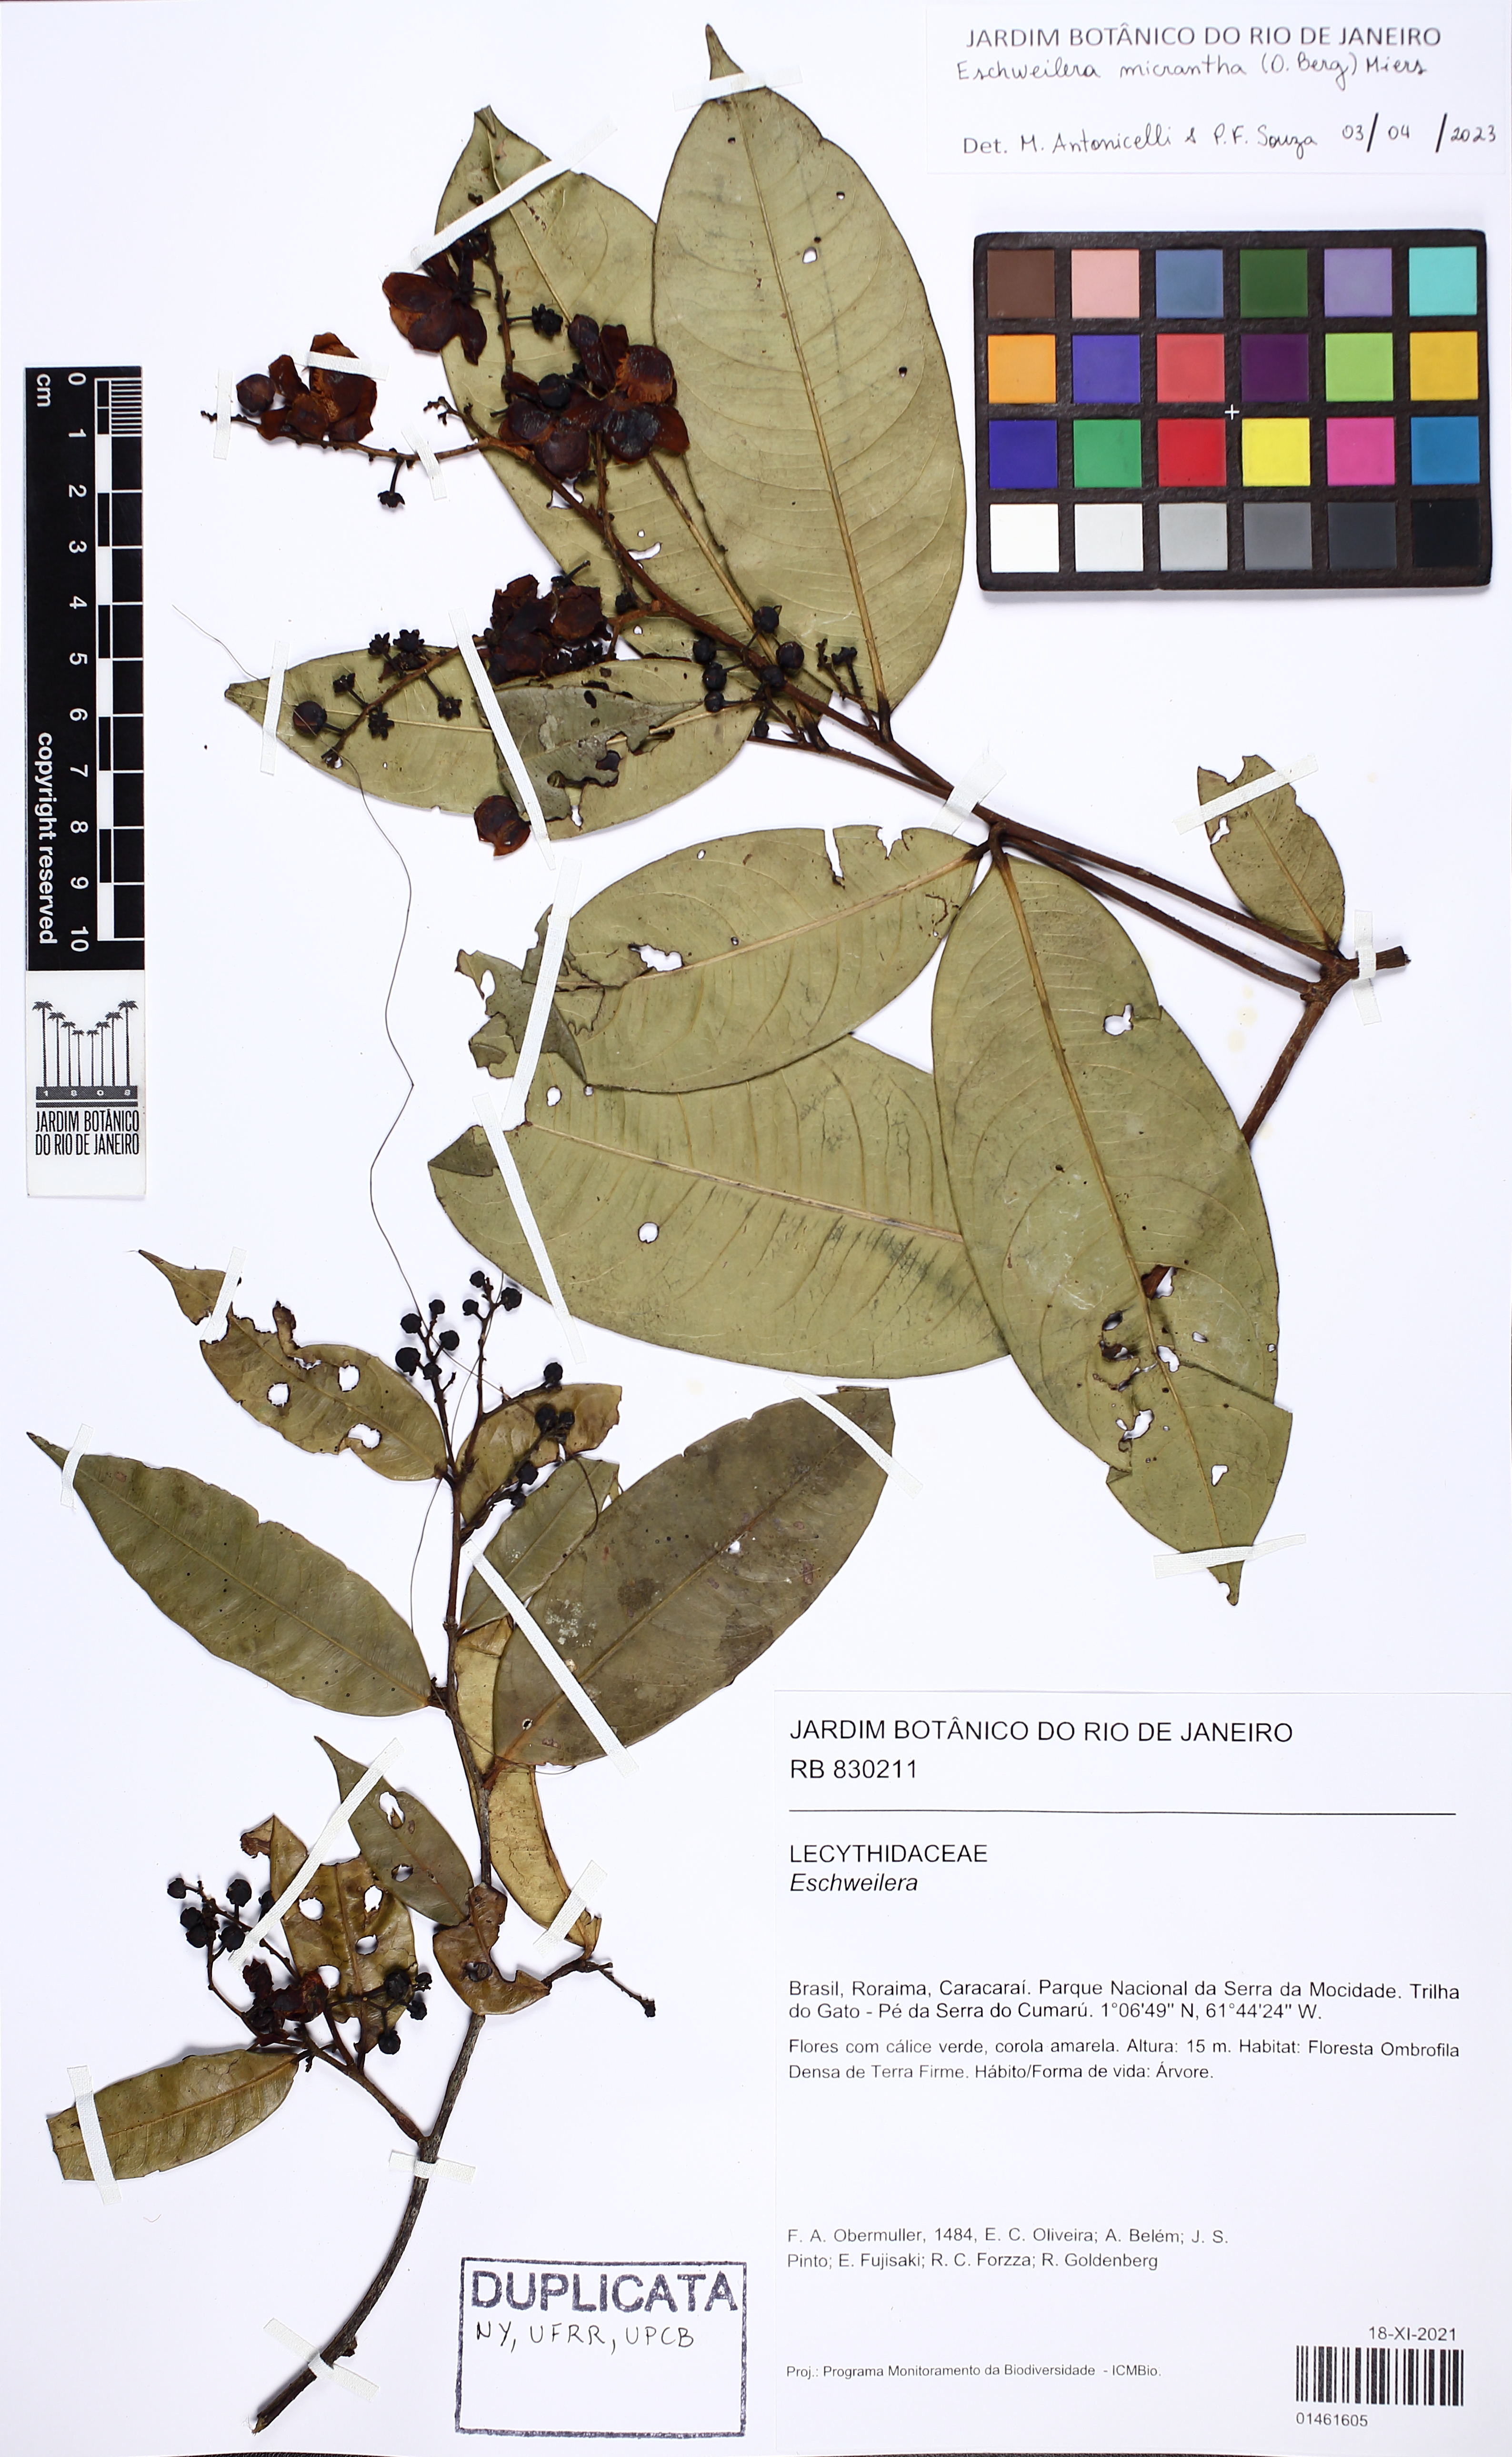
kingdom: Plantae
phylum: Tracheophyta
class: Magnoliopsida
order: Ericales
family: Lecythidaceae
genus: Eschweilera
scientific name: Eschweilera micrantha
